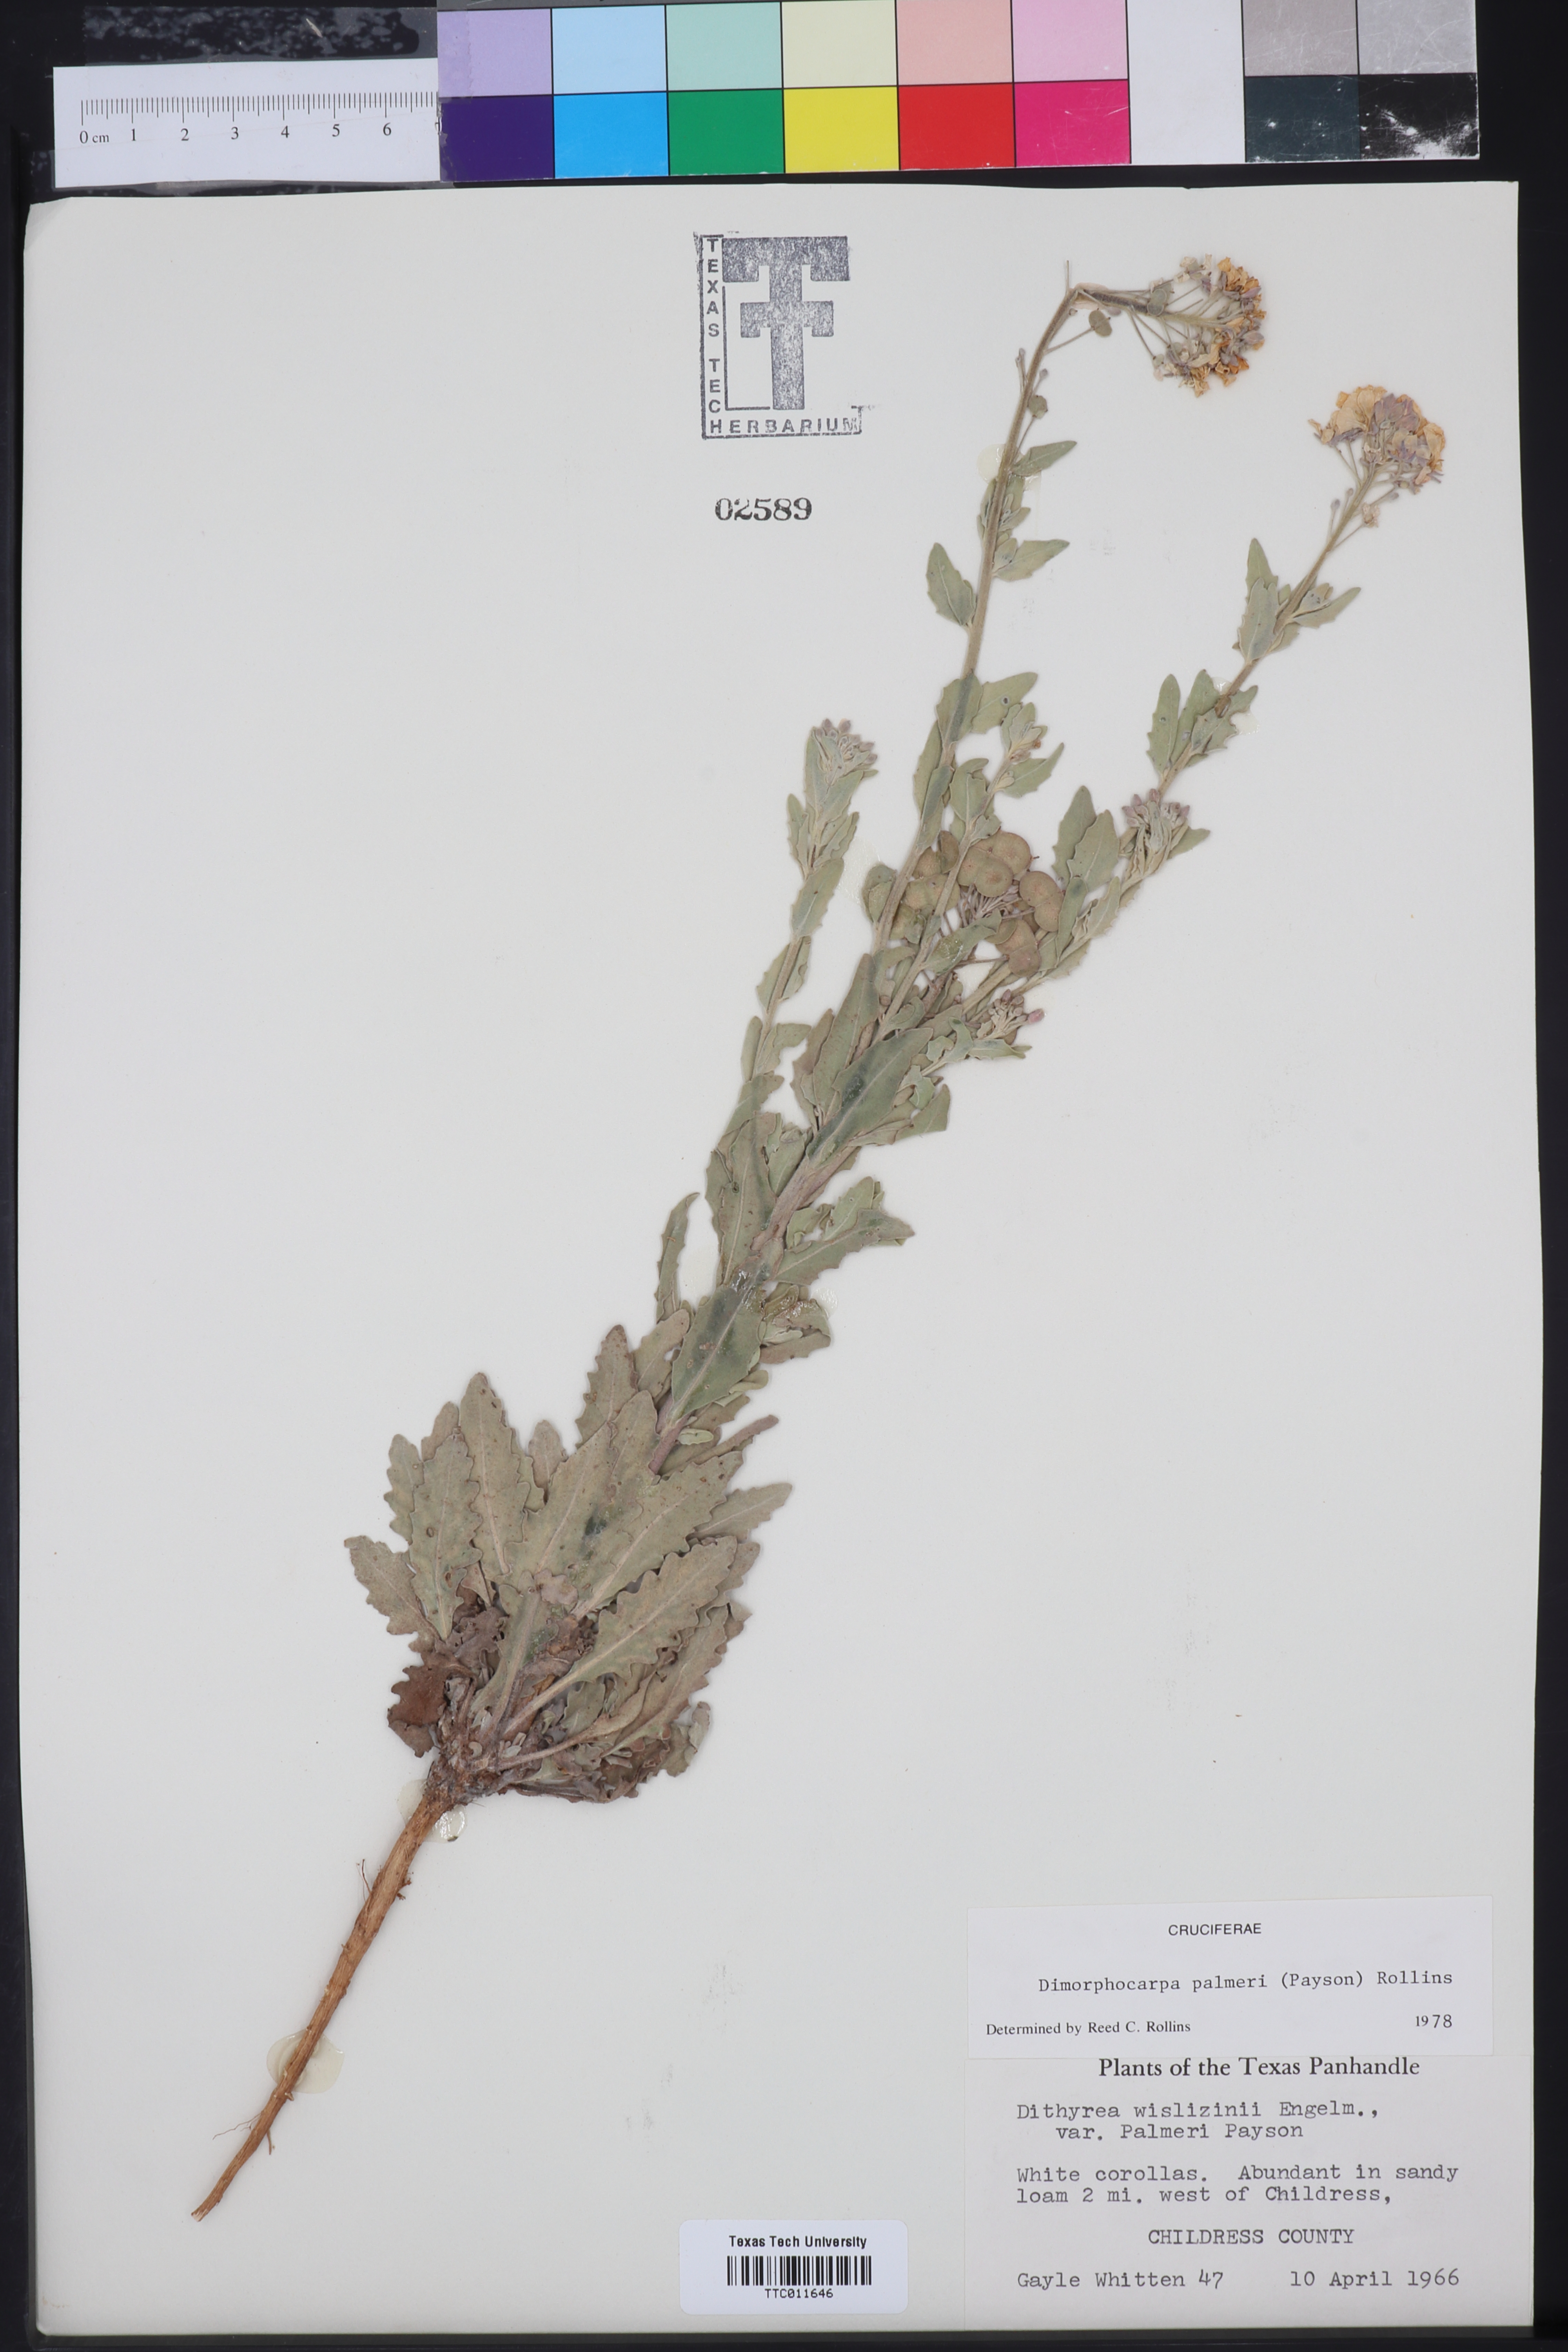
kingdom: Plantae
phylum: Tracheophyta
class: Magnoliopsida
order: Brassicales
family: Brassicaceae
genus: Dimorphocarpa
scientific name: Dimorphocarpa candicans
